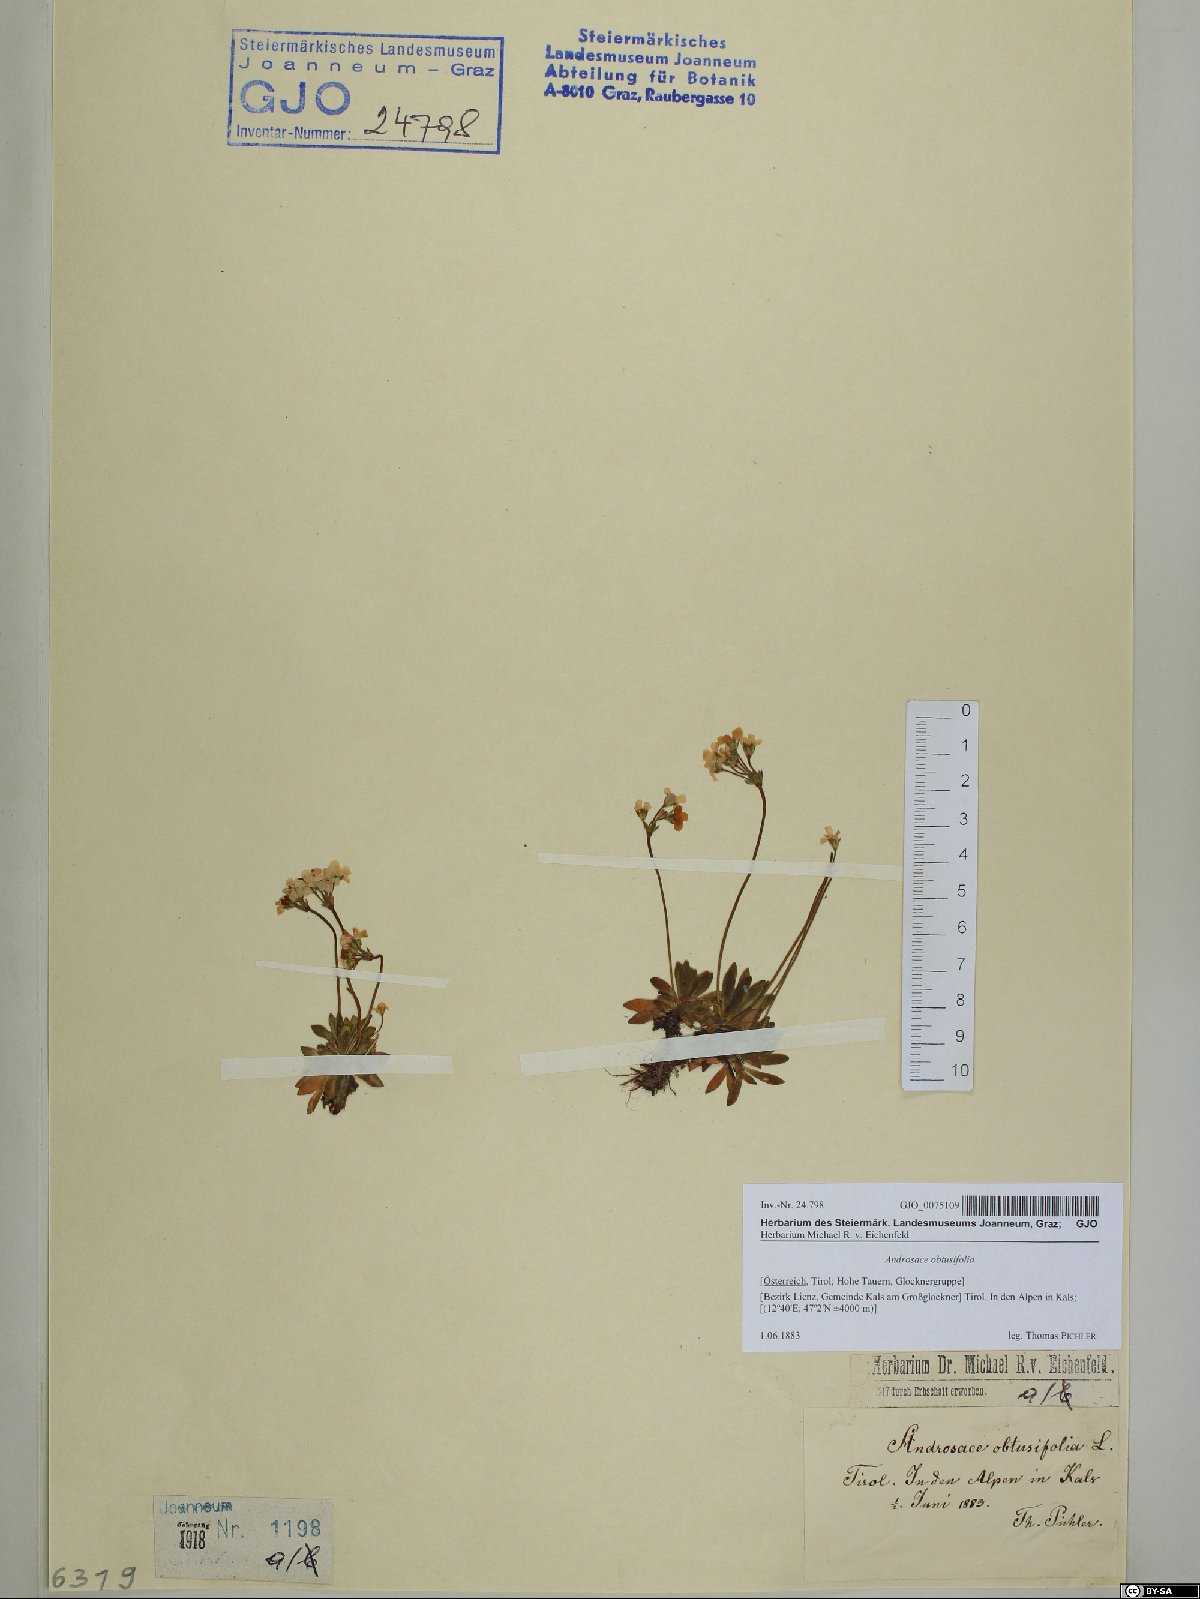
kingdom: Plantae
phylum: Tracheophyta
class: Magnoliopsida
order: Ericales
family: Primulaceae
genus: Androsace
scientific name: Androsace obtusifolia
